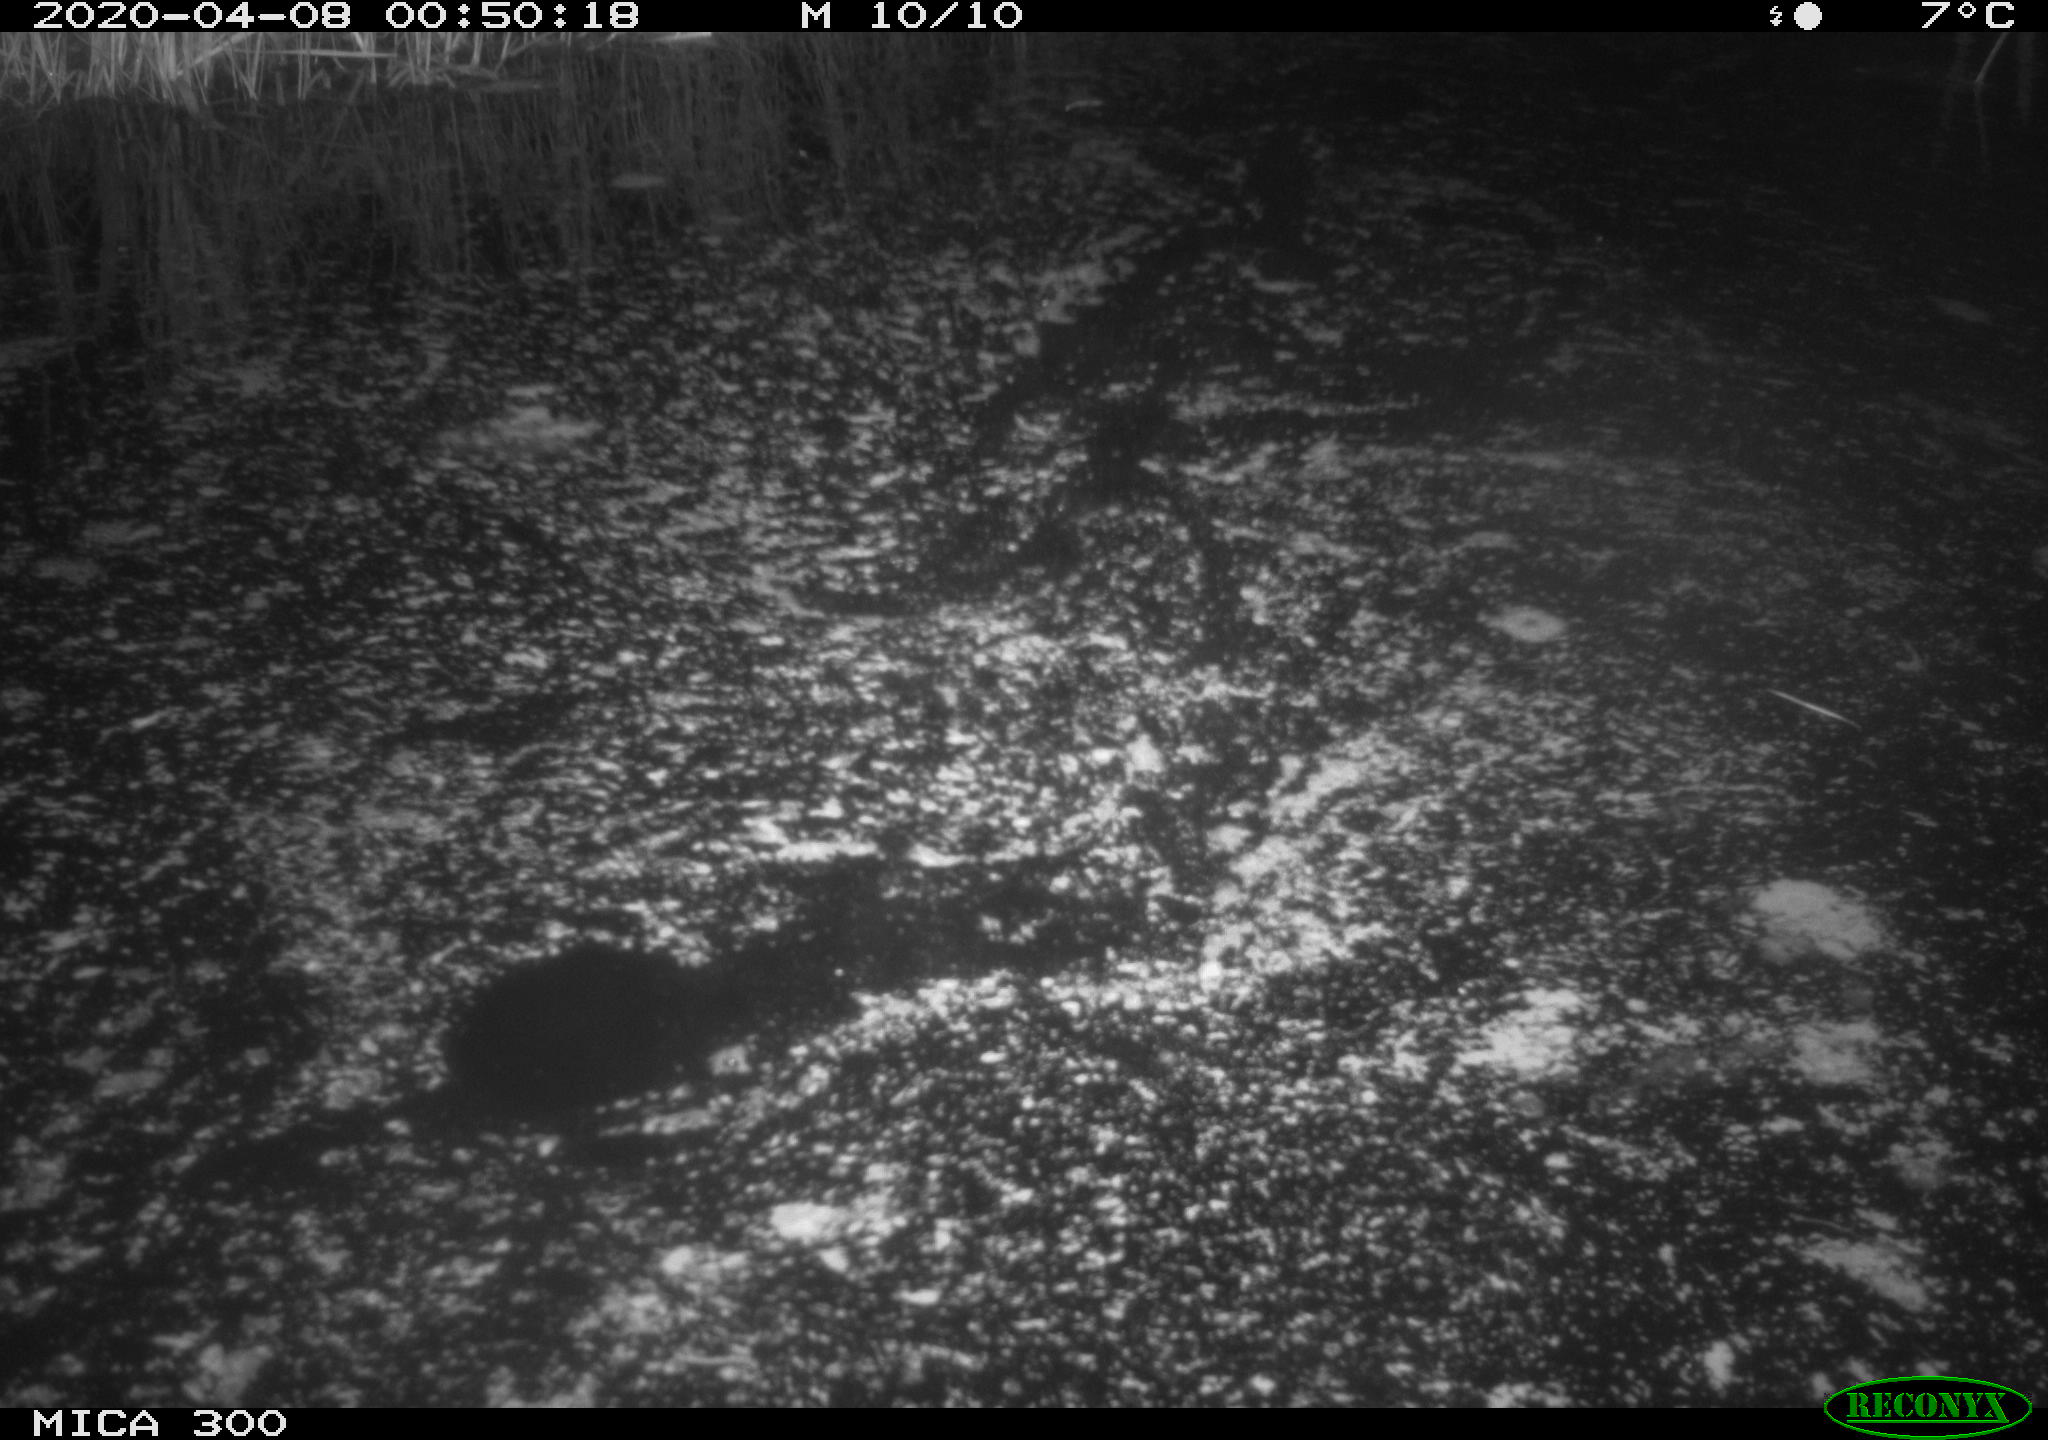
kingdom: Animalia
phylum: Chordata
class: Mammalia
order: Rodentia
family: Castoridae
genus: Castor
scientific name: Castor fiber
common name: Eurasian beaver
